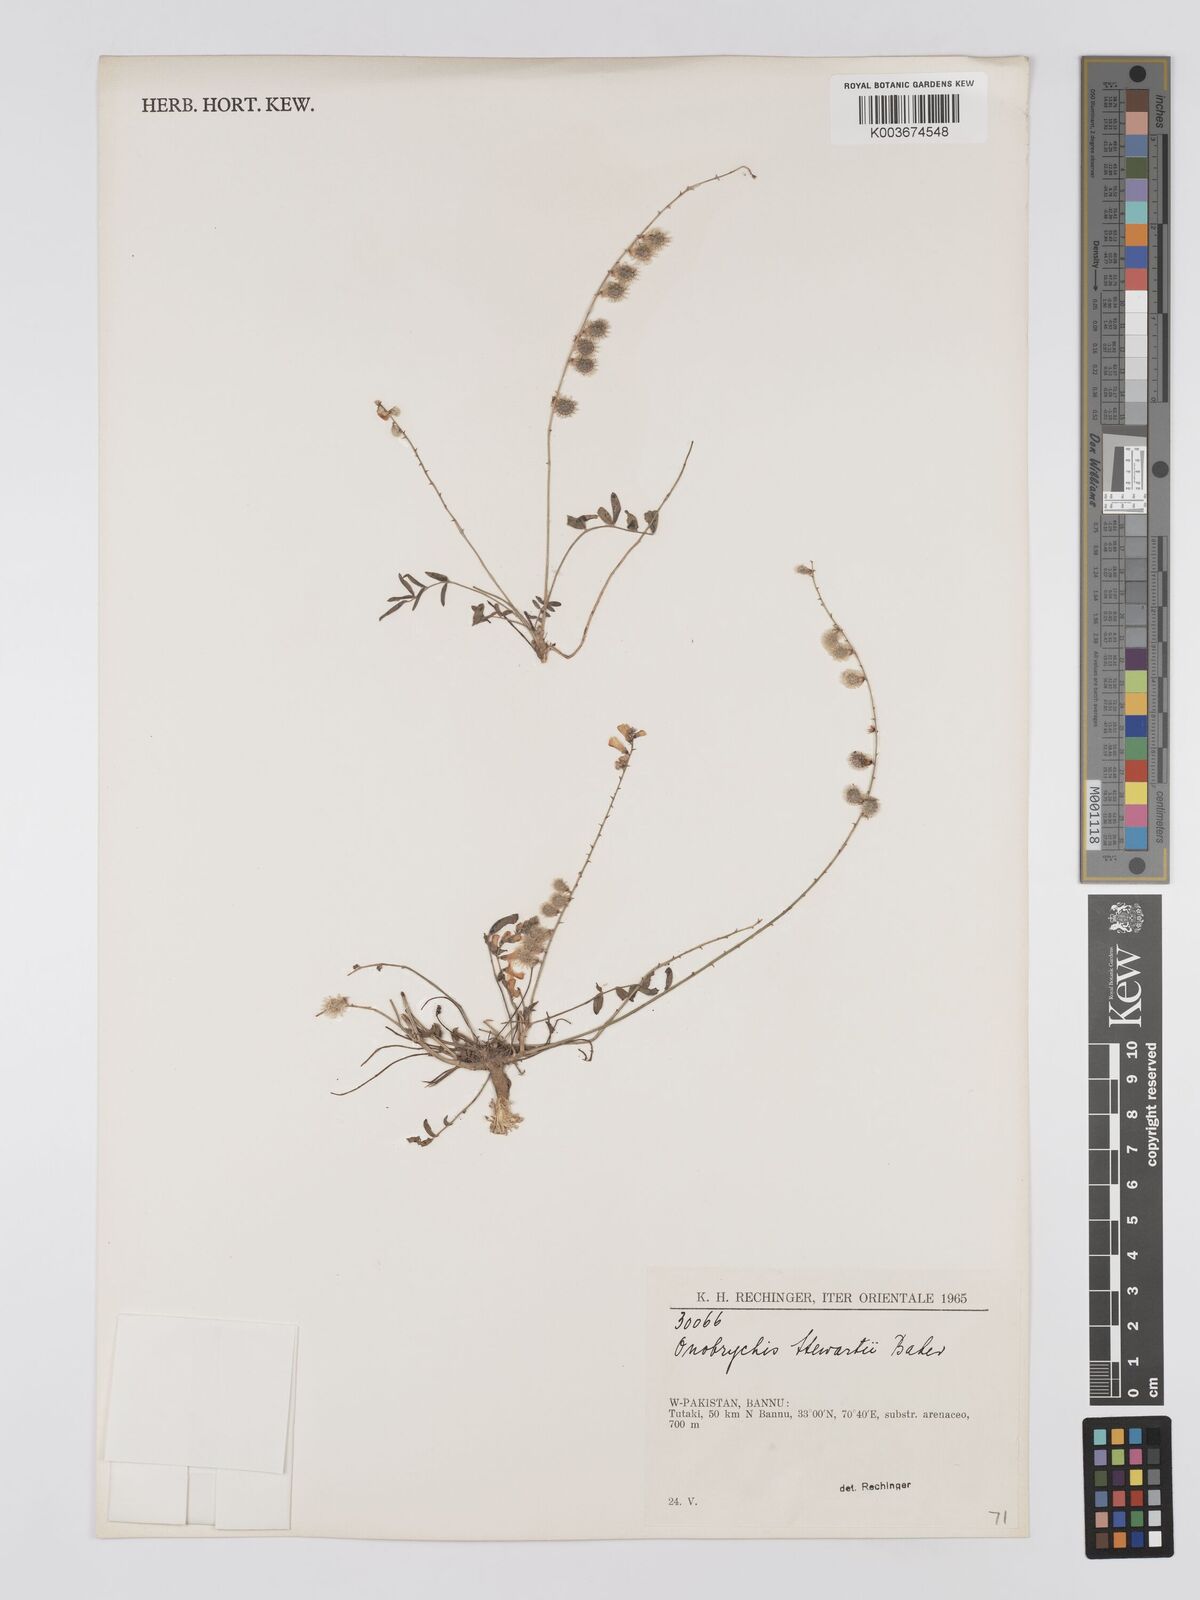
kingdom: Plantae
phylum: Tracheophyta
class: Magnoliopsida
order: Fabales
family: Fabaceae
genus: Onobrychis
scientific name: Onobrychis stewartii
